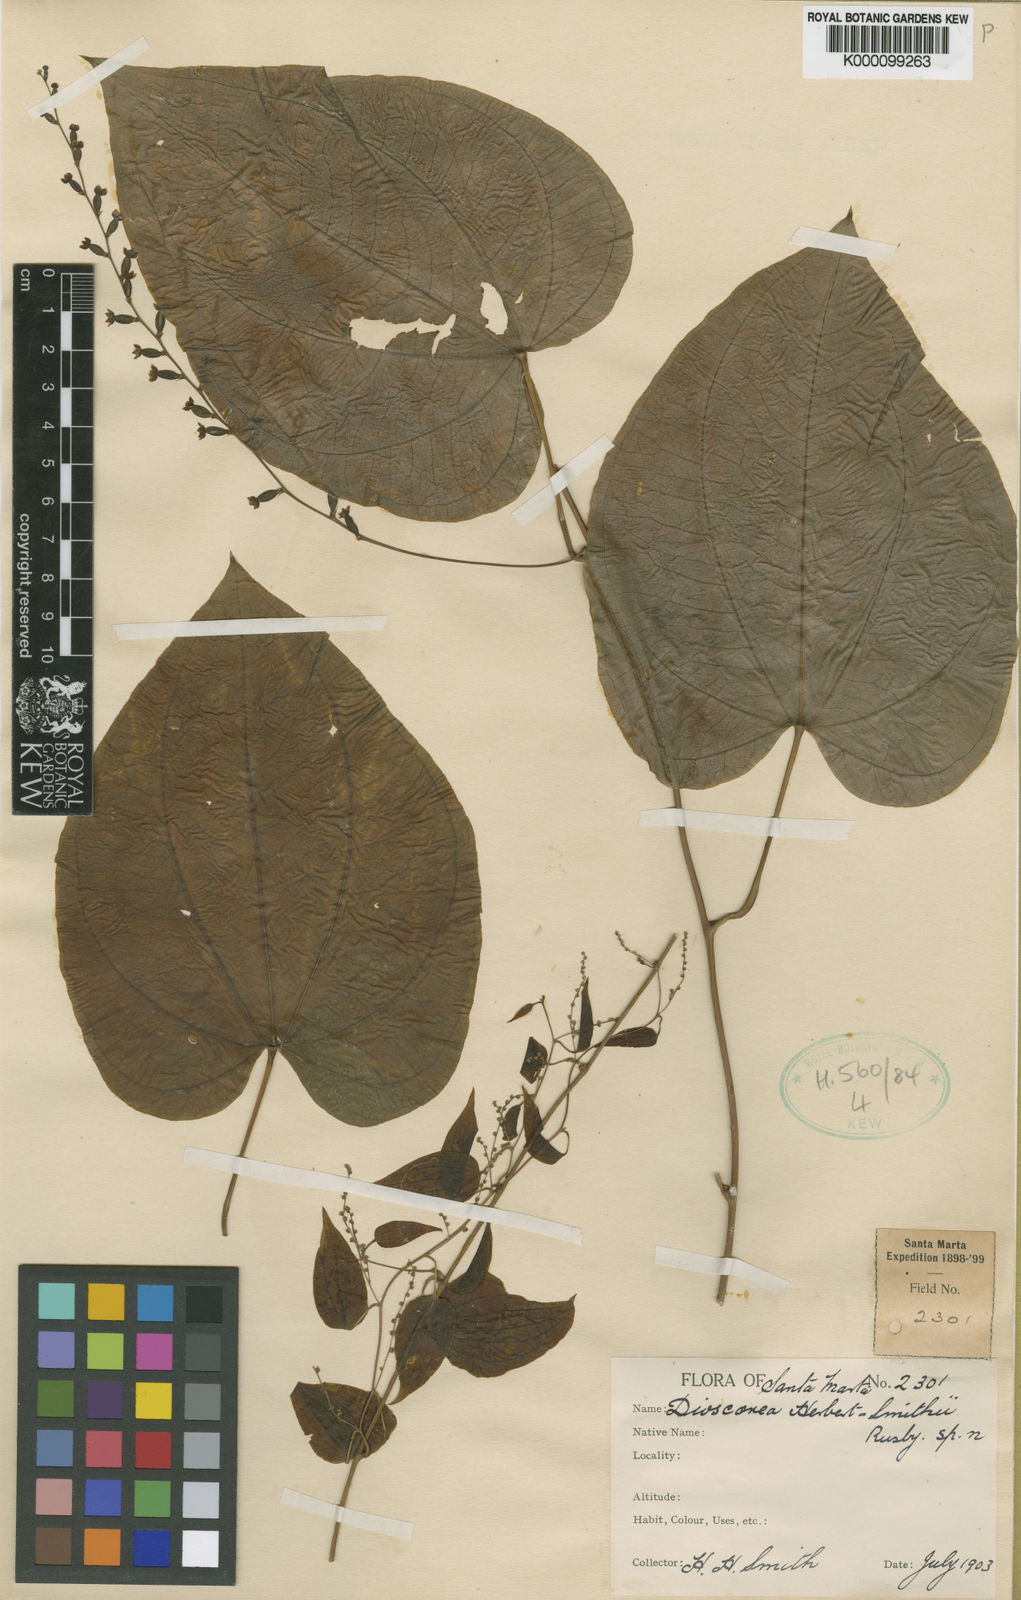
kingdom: Plantae
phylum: Tracheophyta
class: Liliopsida
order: Dioscoreales
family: Dioscoreaceae
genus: Dioscorea
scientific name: Dioscorea herbert-smithii
